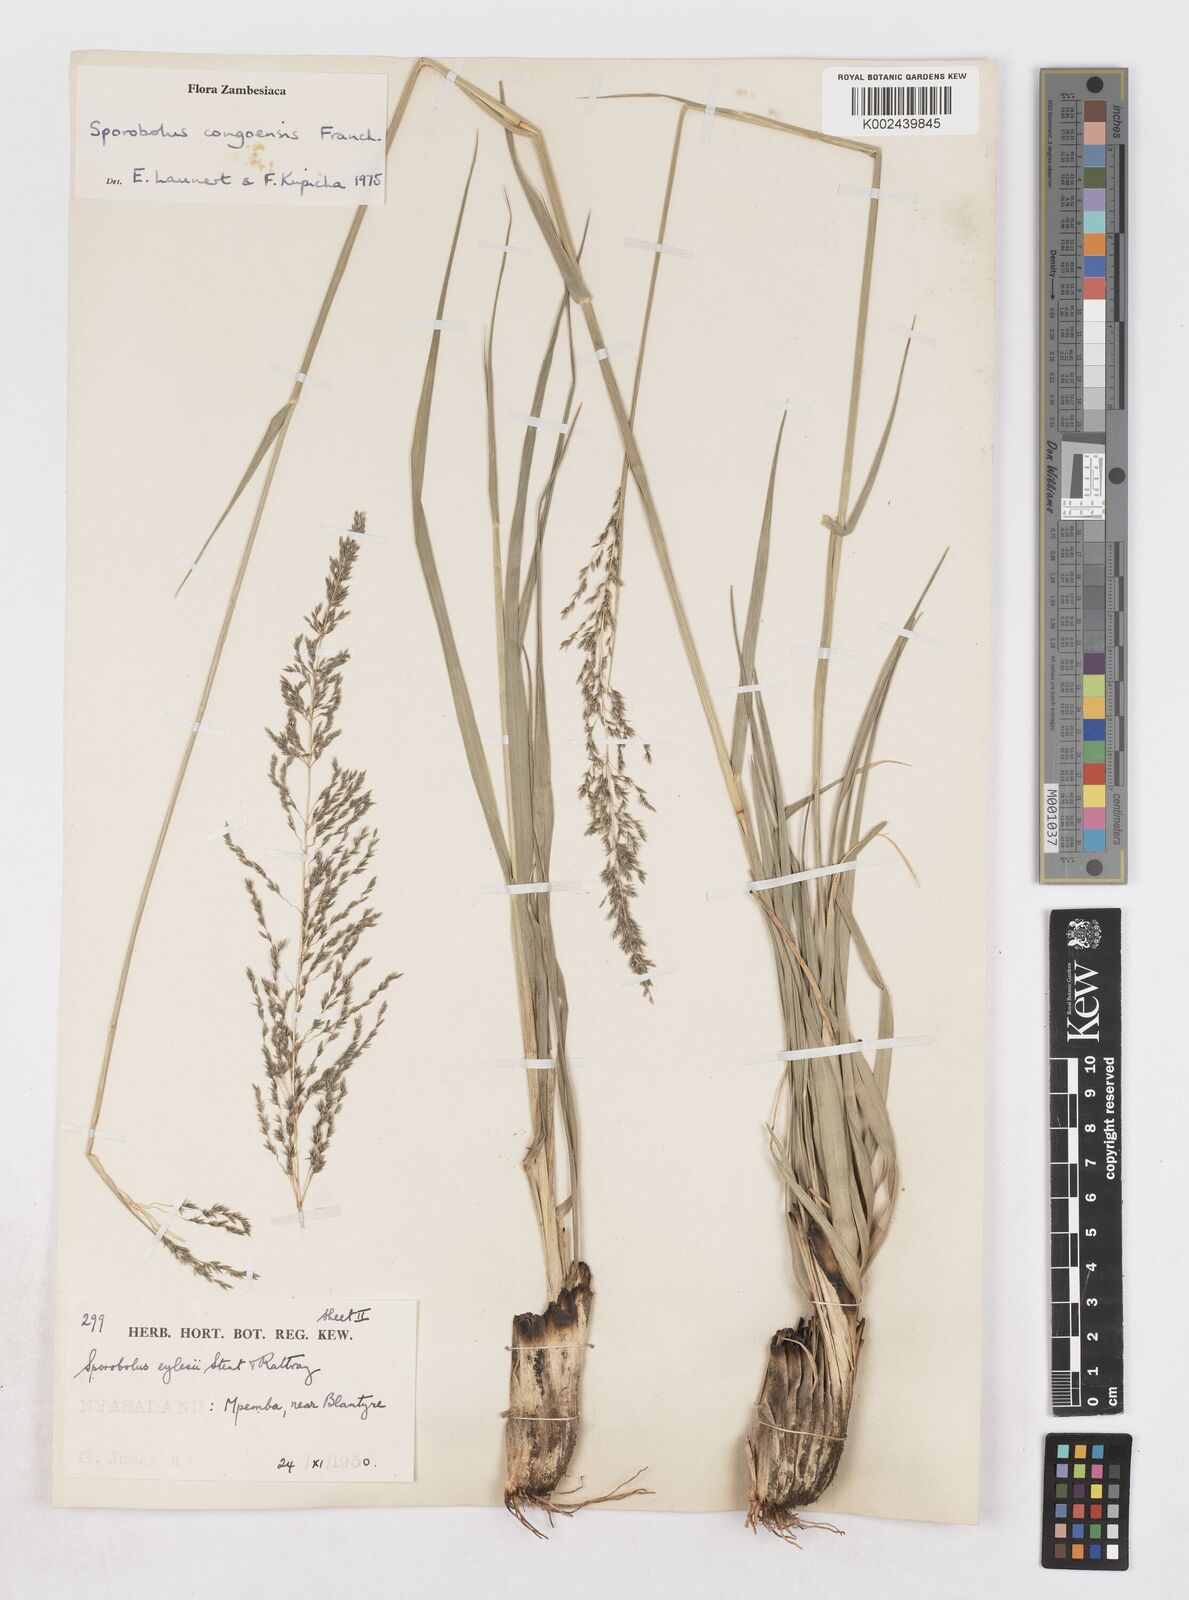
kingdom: Plantae
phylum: Tracheophyta
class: Liliopsida
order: Poales
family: Poaceae
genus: Sporobolus
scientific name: Sporobolus congoensis
